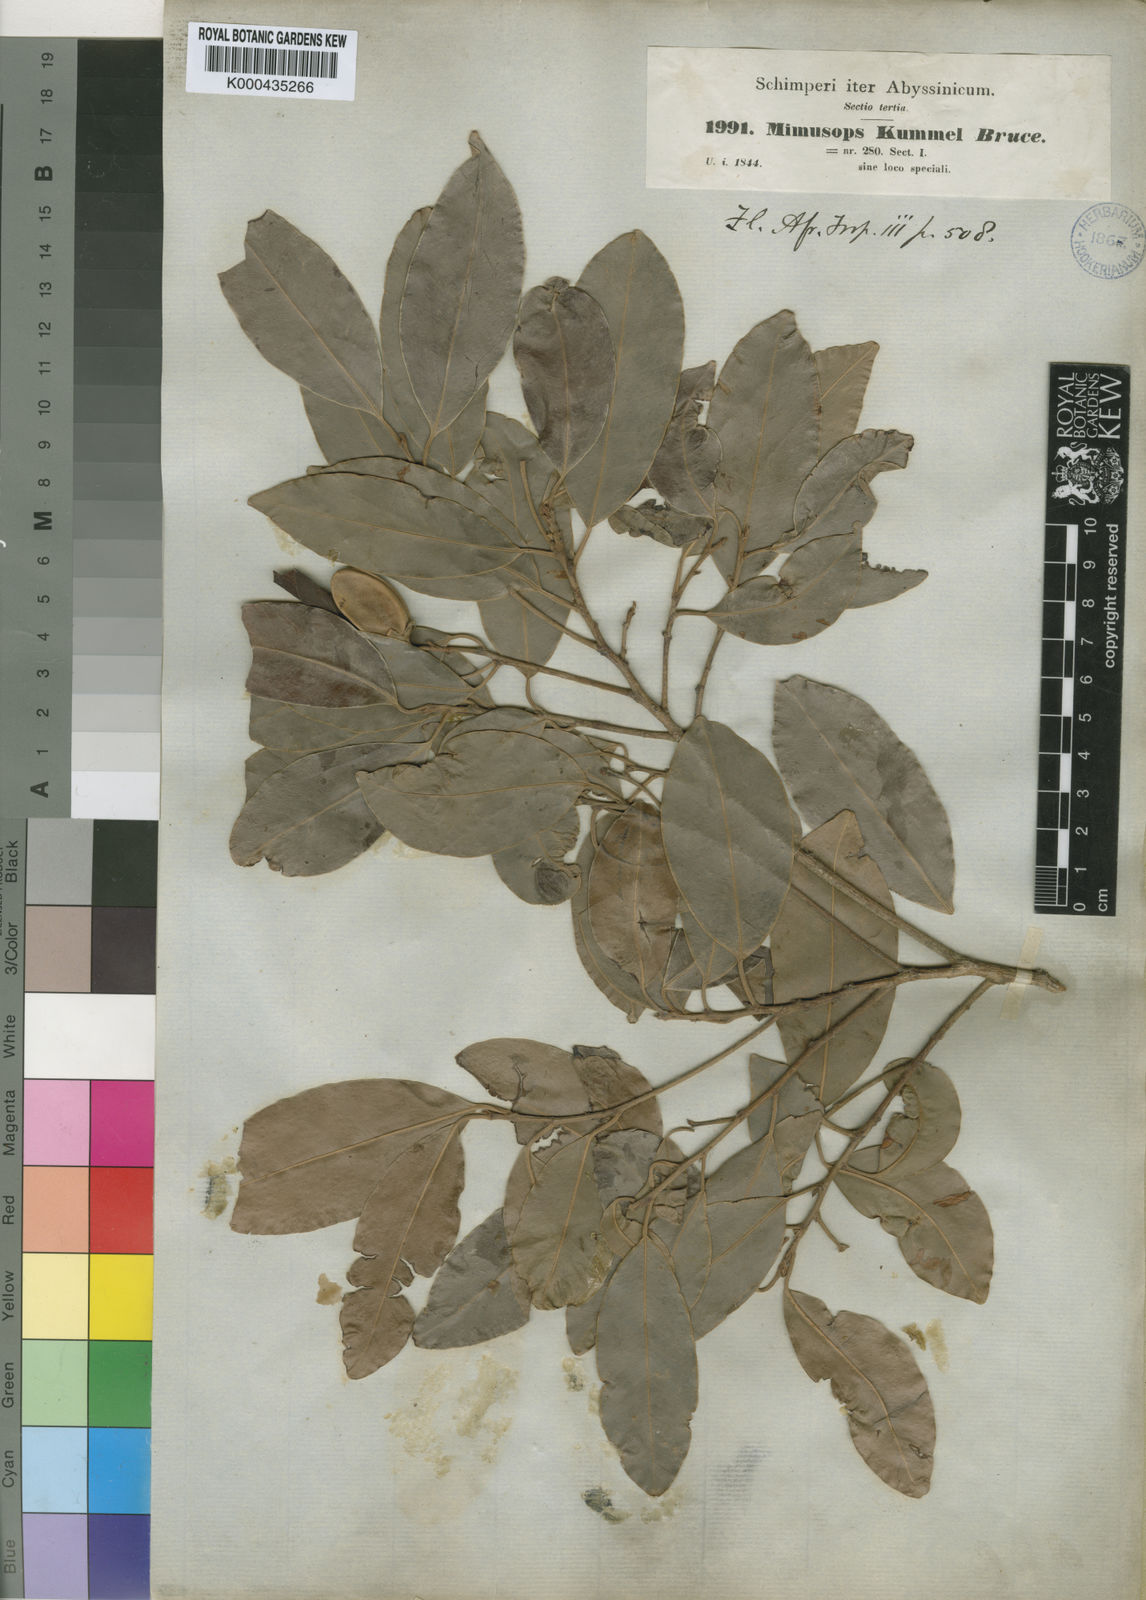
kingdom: Plantae
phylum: Tracheophyta
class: Magnoliopsida
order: Ericales
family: Sapotaceae
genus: Mimusops
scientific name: Mimusops kummel
